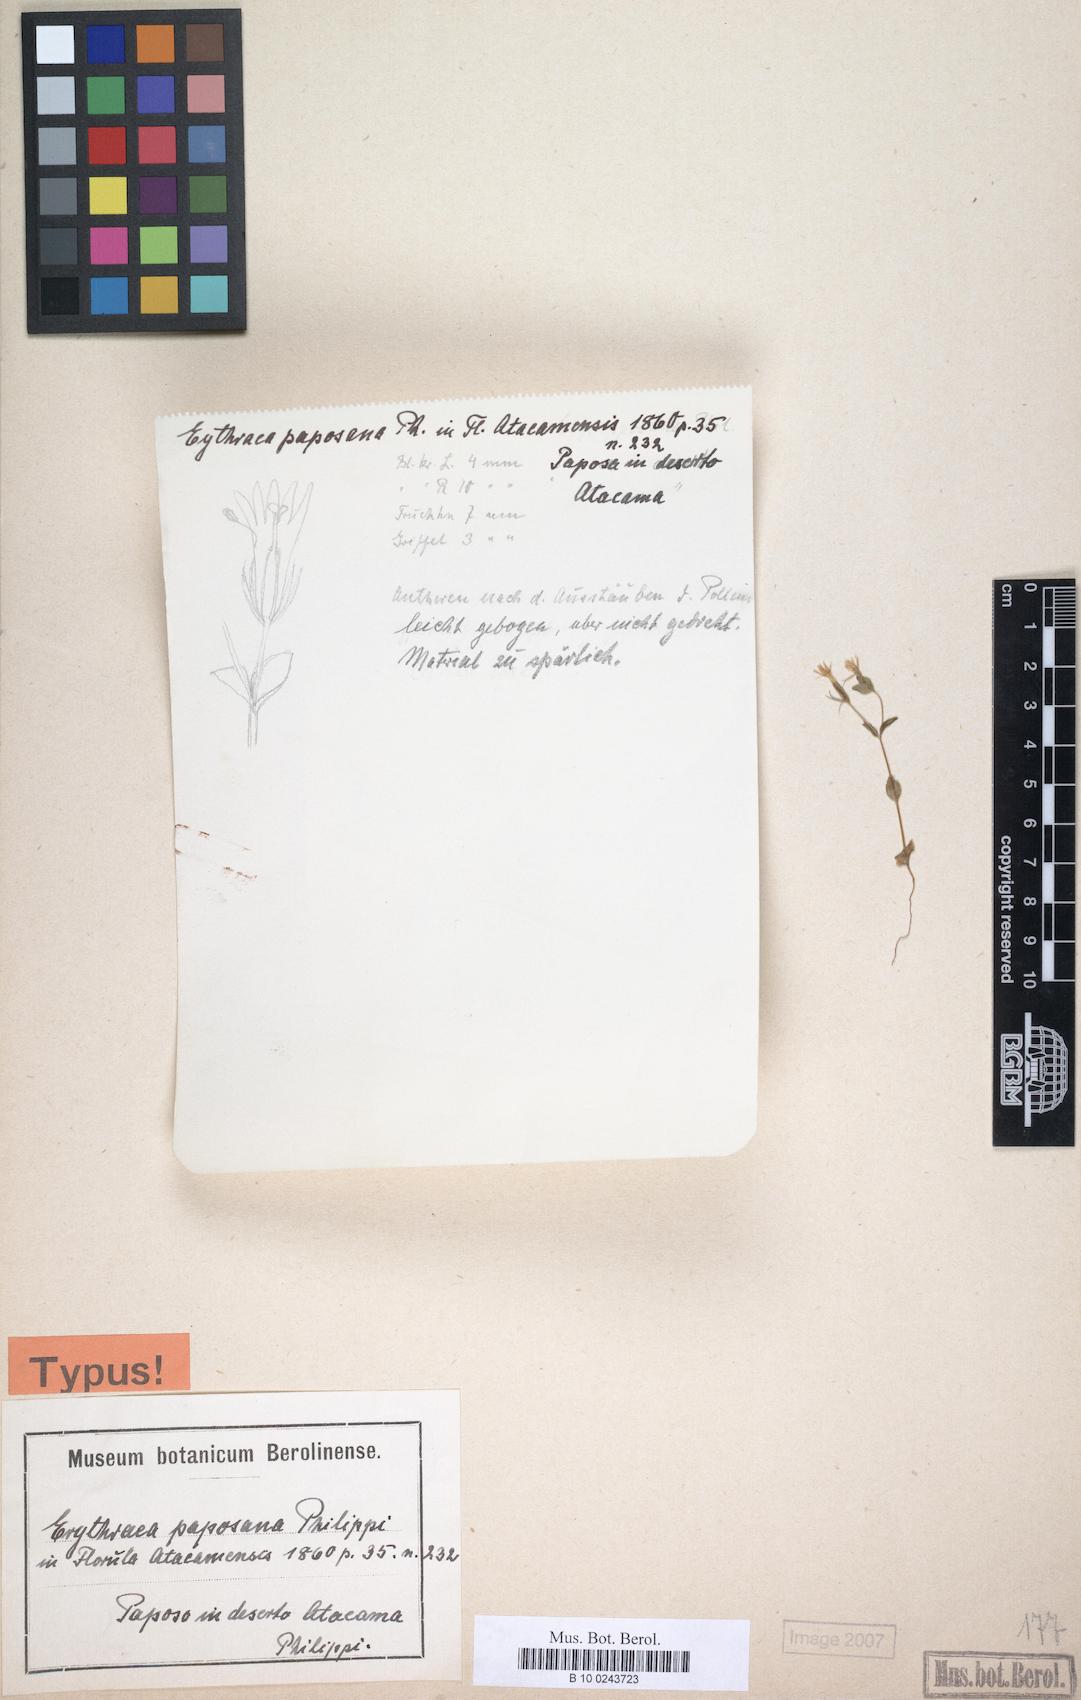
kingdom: Plantae
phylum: Tracheophyta
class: Magnoliopsida
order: Gentianales
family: Gentianaceae
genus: Centaurium
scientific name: Centaurium
